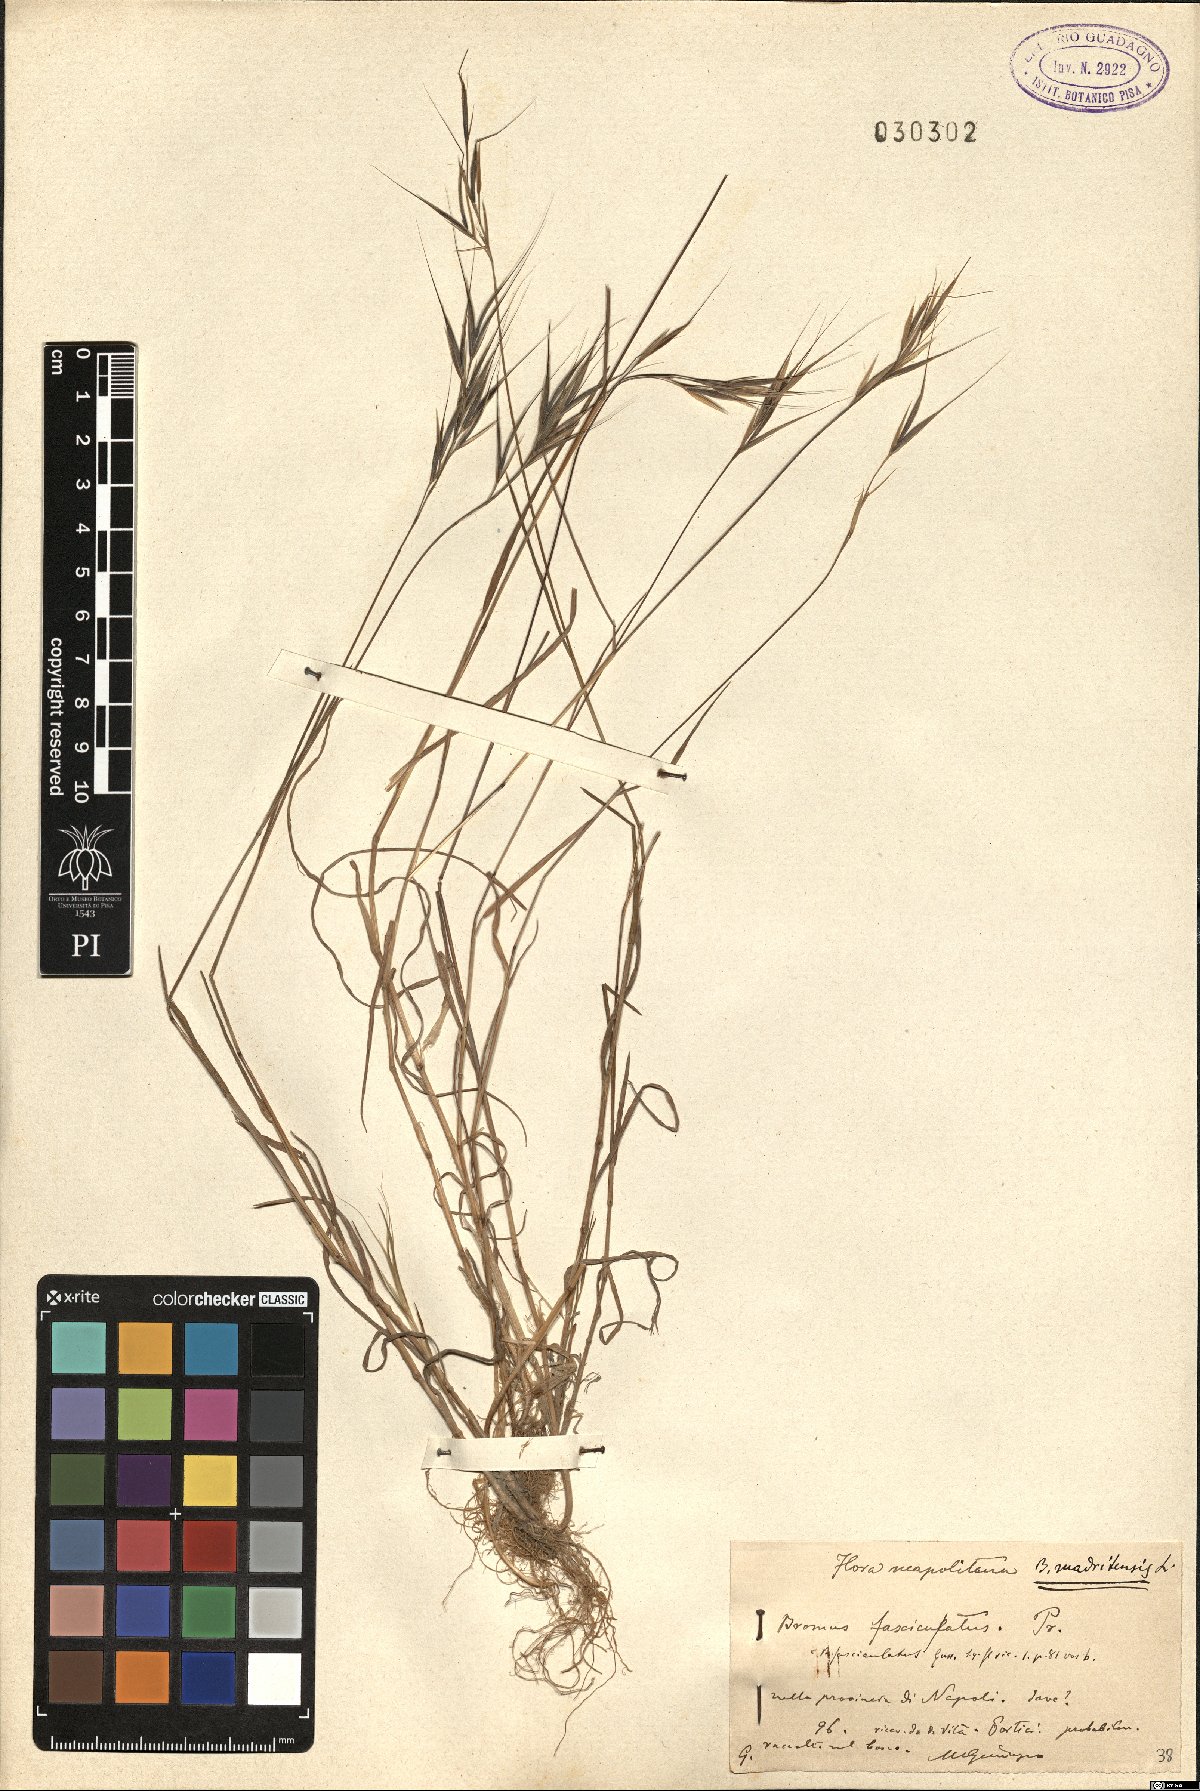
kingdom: Plantae
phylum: Tracheophyta
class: Liliopsida
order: Poales
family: Poaceae
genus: Bromus
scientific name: Bromus madritensis
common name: Compact brome
